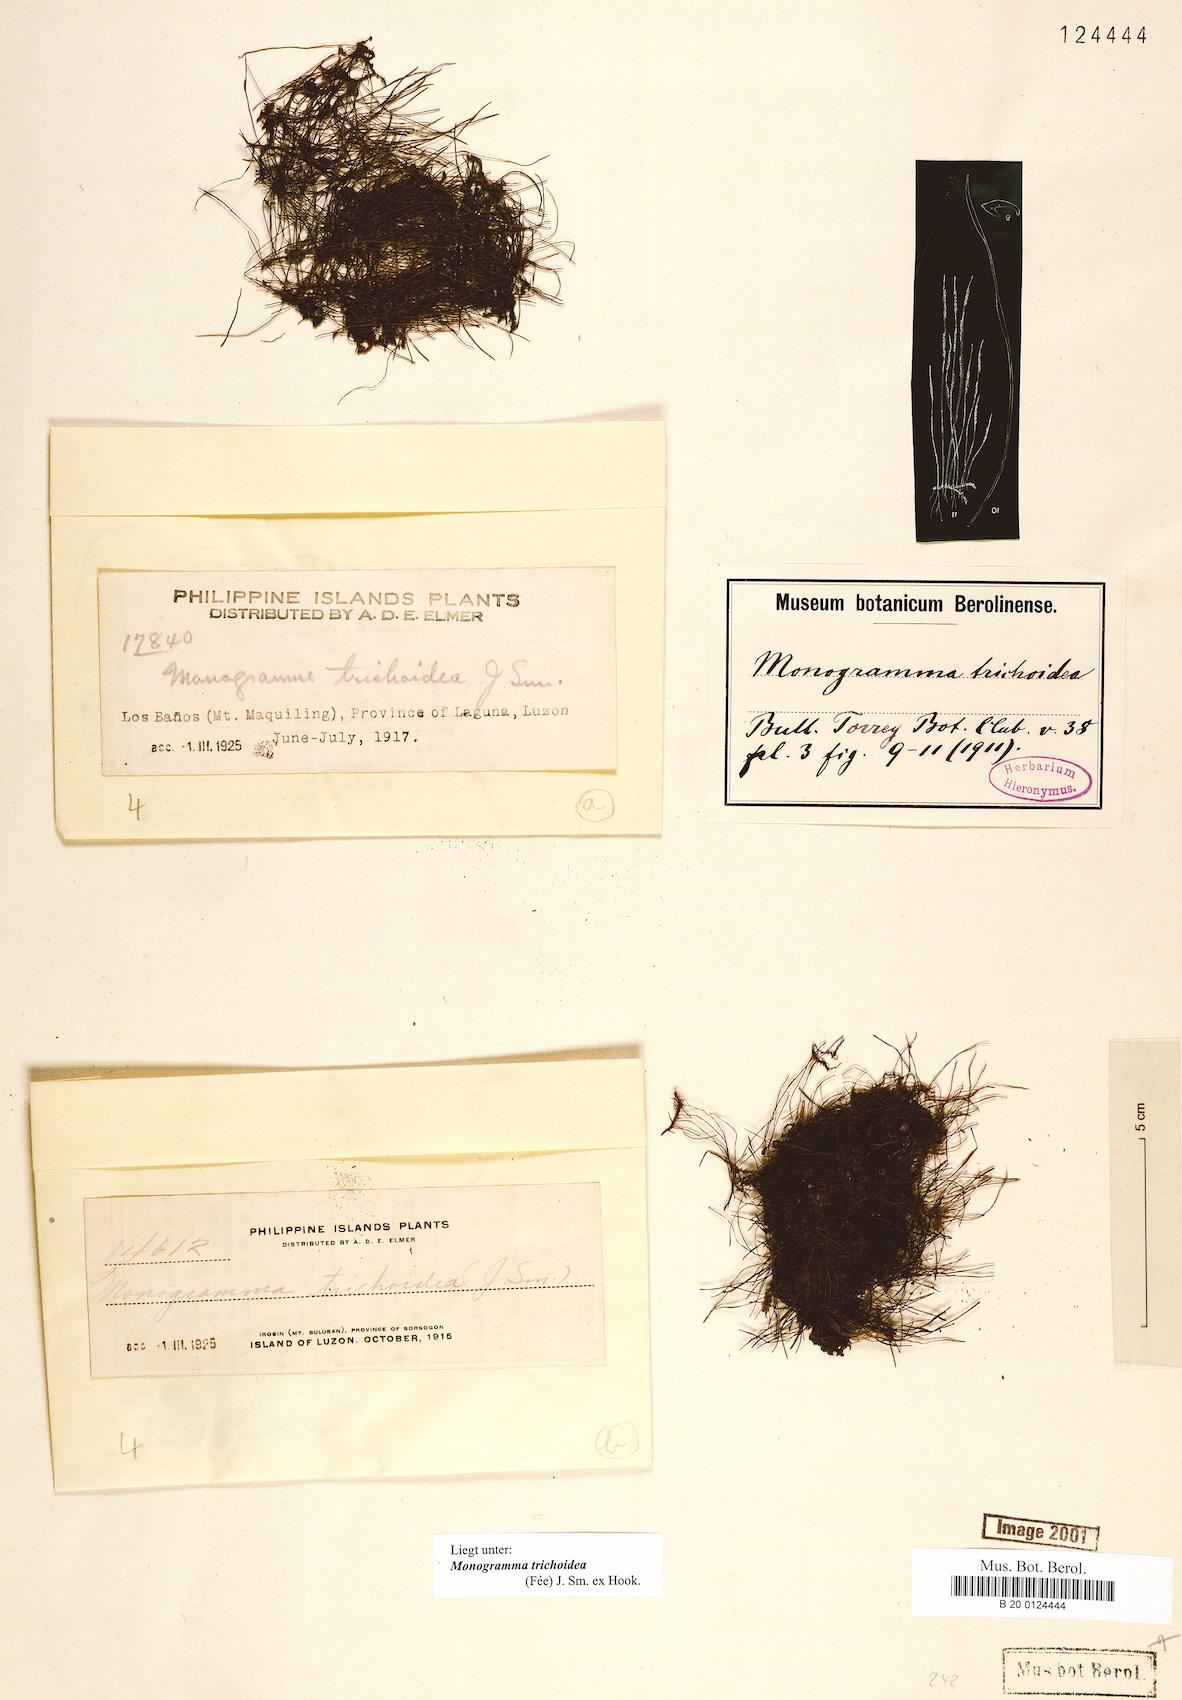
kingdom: Plantae
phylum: Tracheophyta
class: Polypodiopsida
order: Polypodiales
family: Pteridaceae
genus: Vaginularia
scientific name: Vaginularia trichoidea
